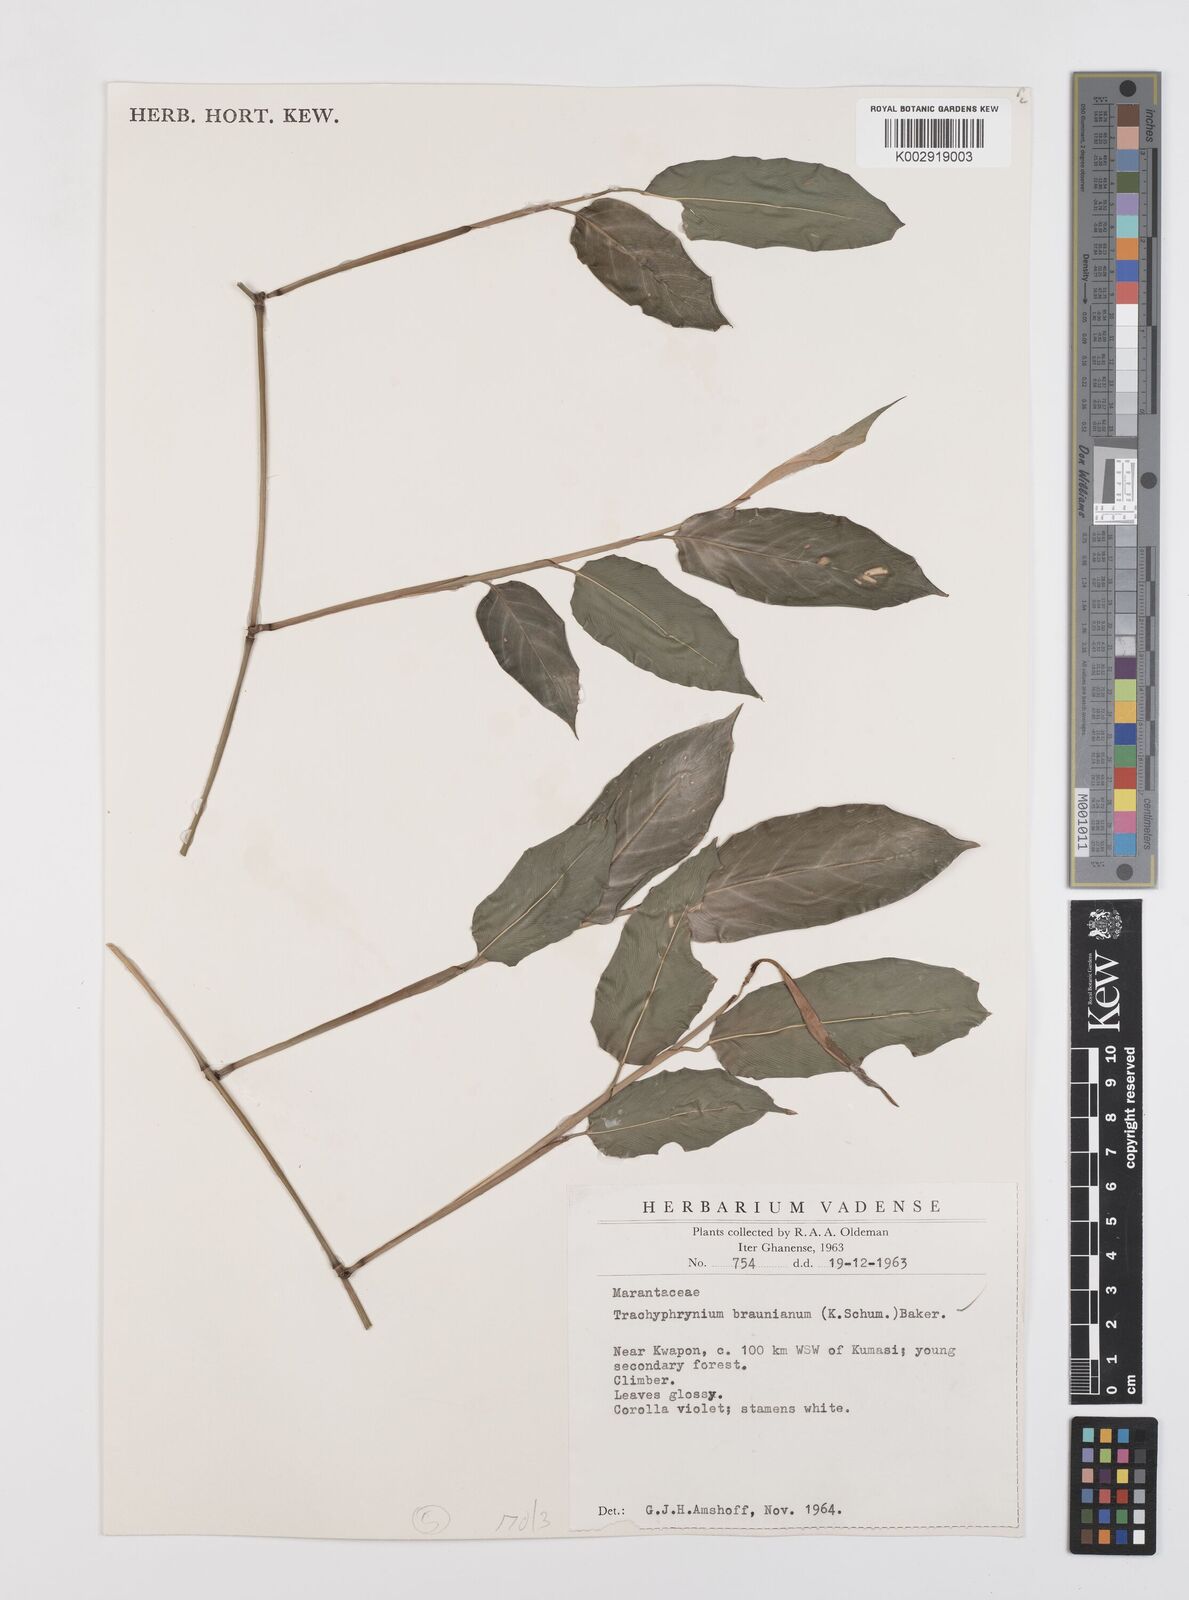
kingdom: Plantae
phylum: Tracheophyta
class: Liliopsida
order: Zingiberales
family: Marantaceae
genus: Trachyphrynium
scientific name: Trachyphrynium braunianum
